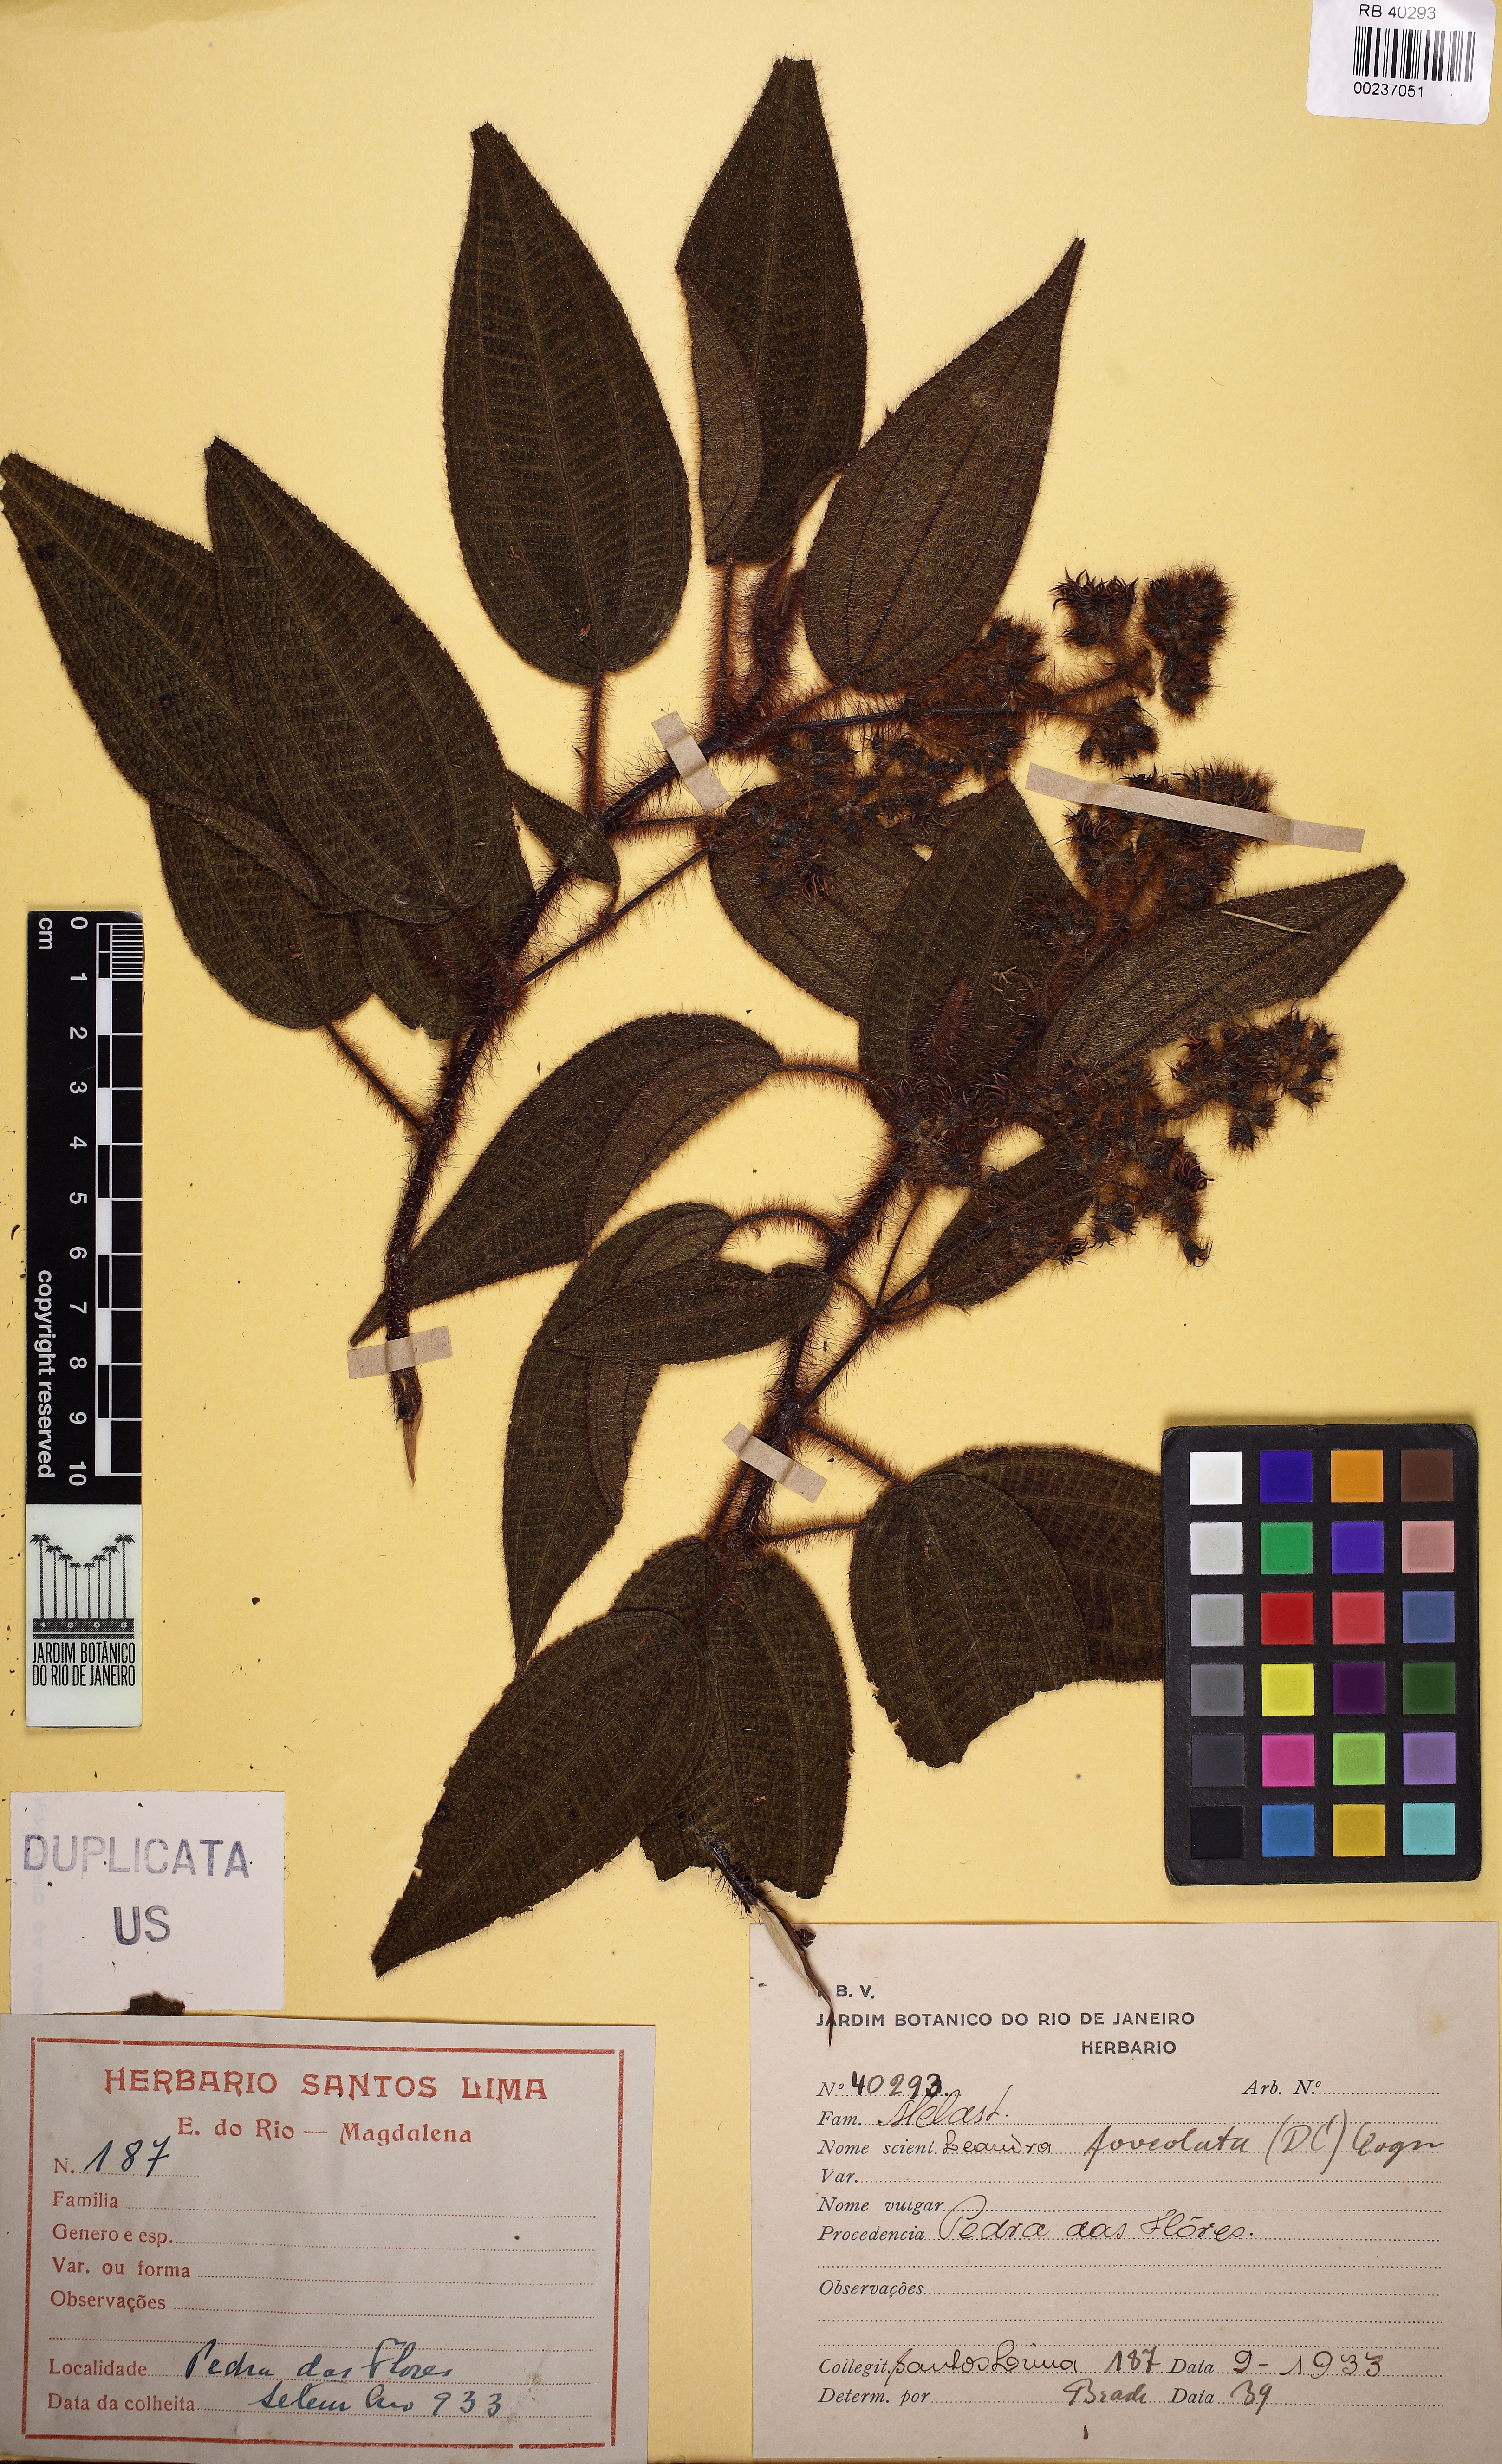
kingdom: Plantae
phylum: Tracheophyta
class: Magnoliopsida
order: Myrtales
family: Melastomataceae
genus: Miconia
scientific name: Miconia leafoveolata
